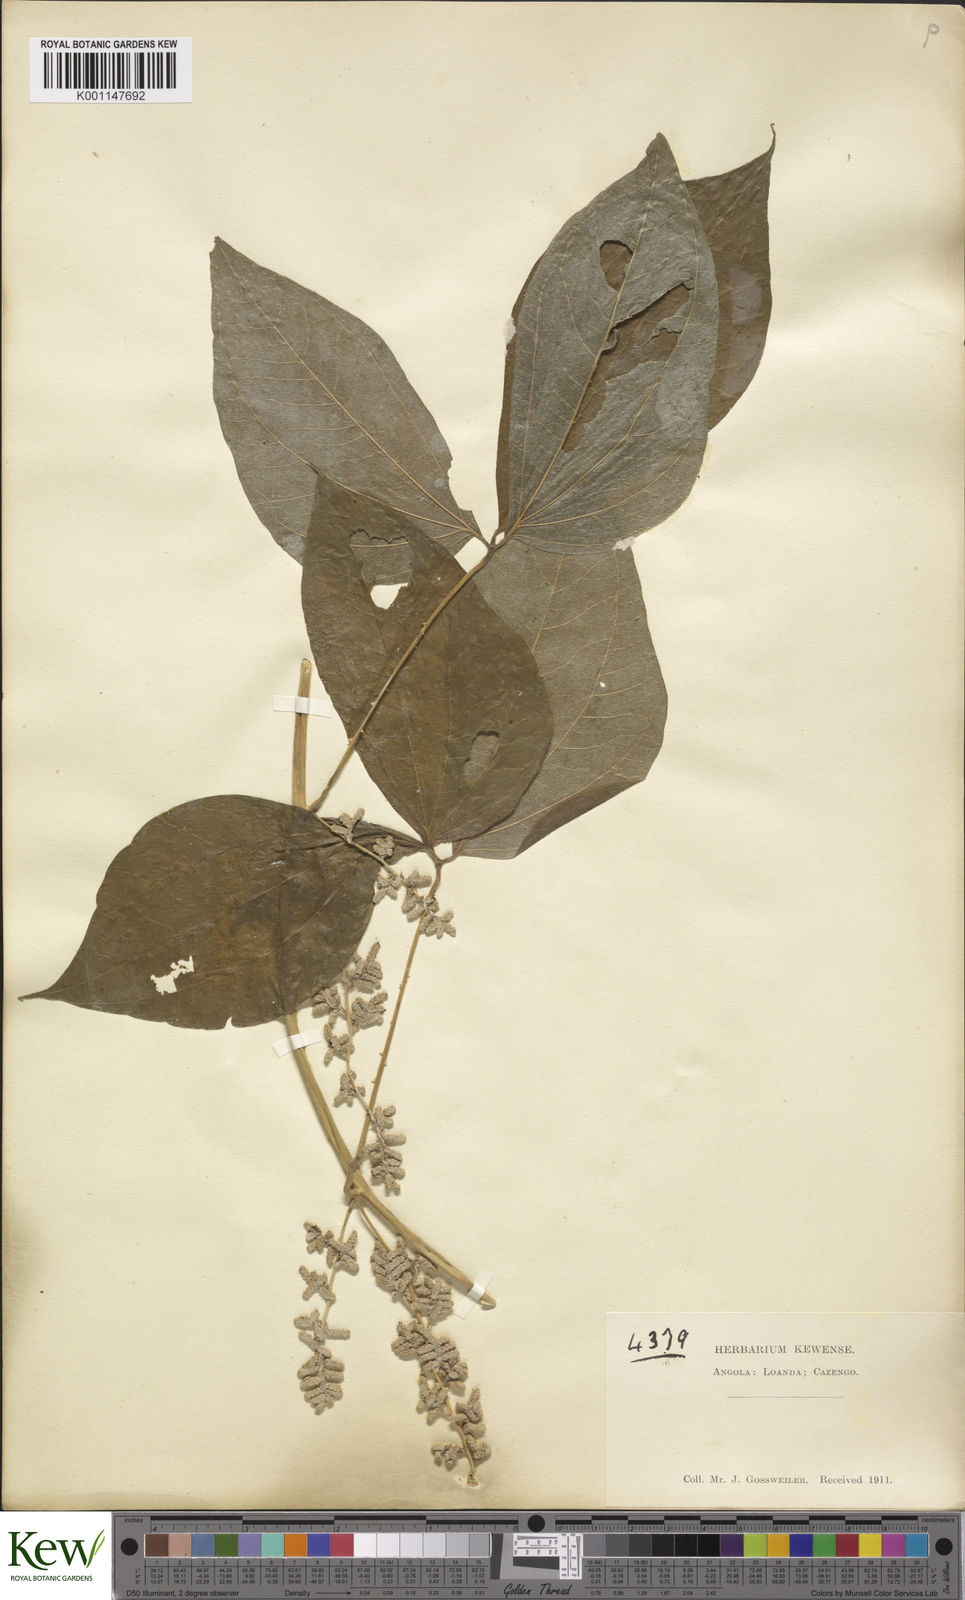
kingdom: Plantae
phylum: Tracheophyta
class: Liliopsida
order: Dioscoreales
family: Dioscoreaceae
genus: Dioscorea
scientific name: Dioscorea dumetorum
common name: African bitter yam
